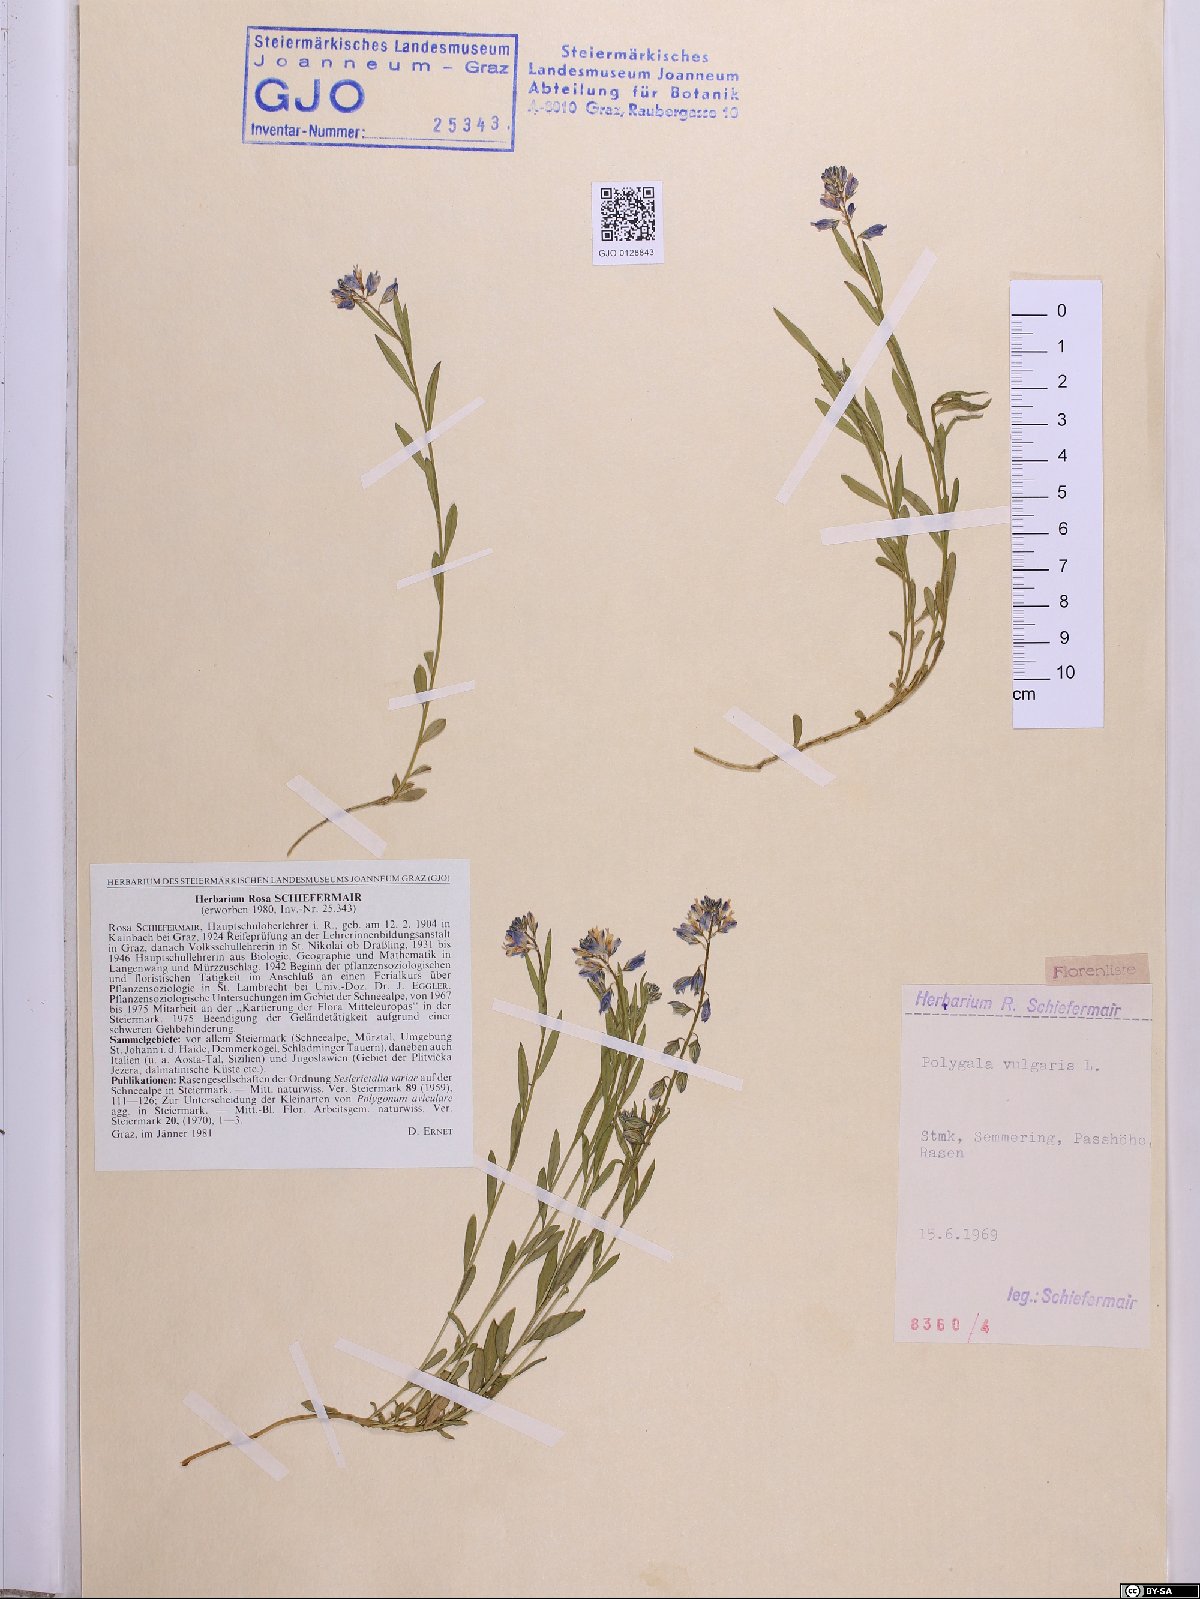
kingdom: Plantae
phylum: Tracheophyta
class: Magnoliopsida
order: Fabales
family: Polygalaceae
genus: Polygala
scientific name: Polygala vulgaris
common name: Common milkwort
